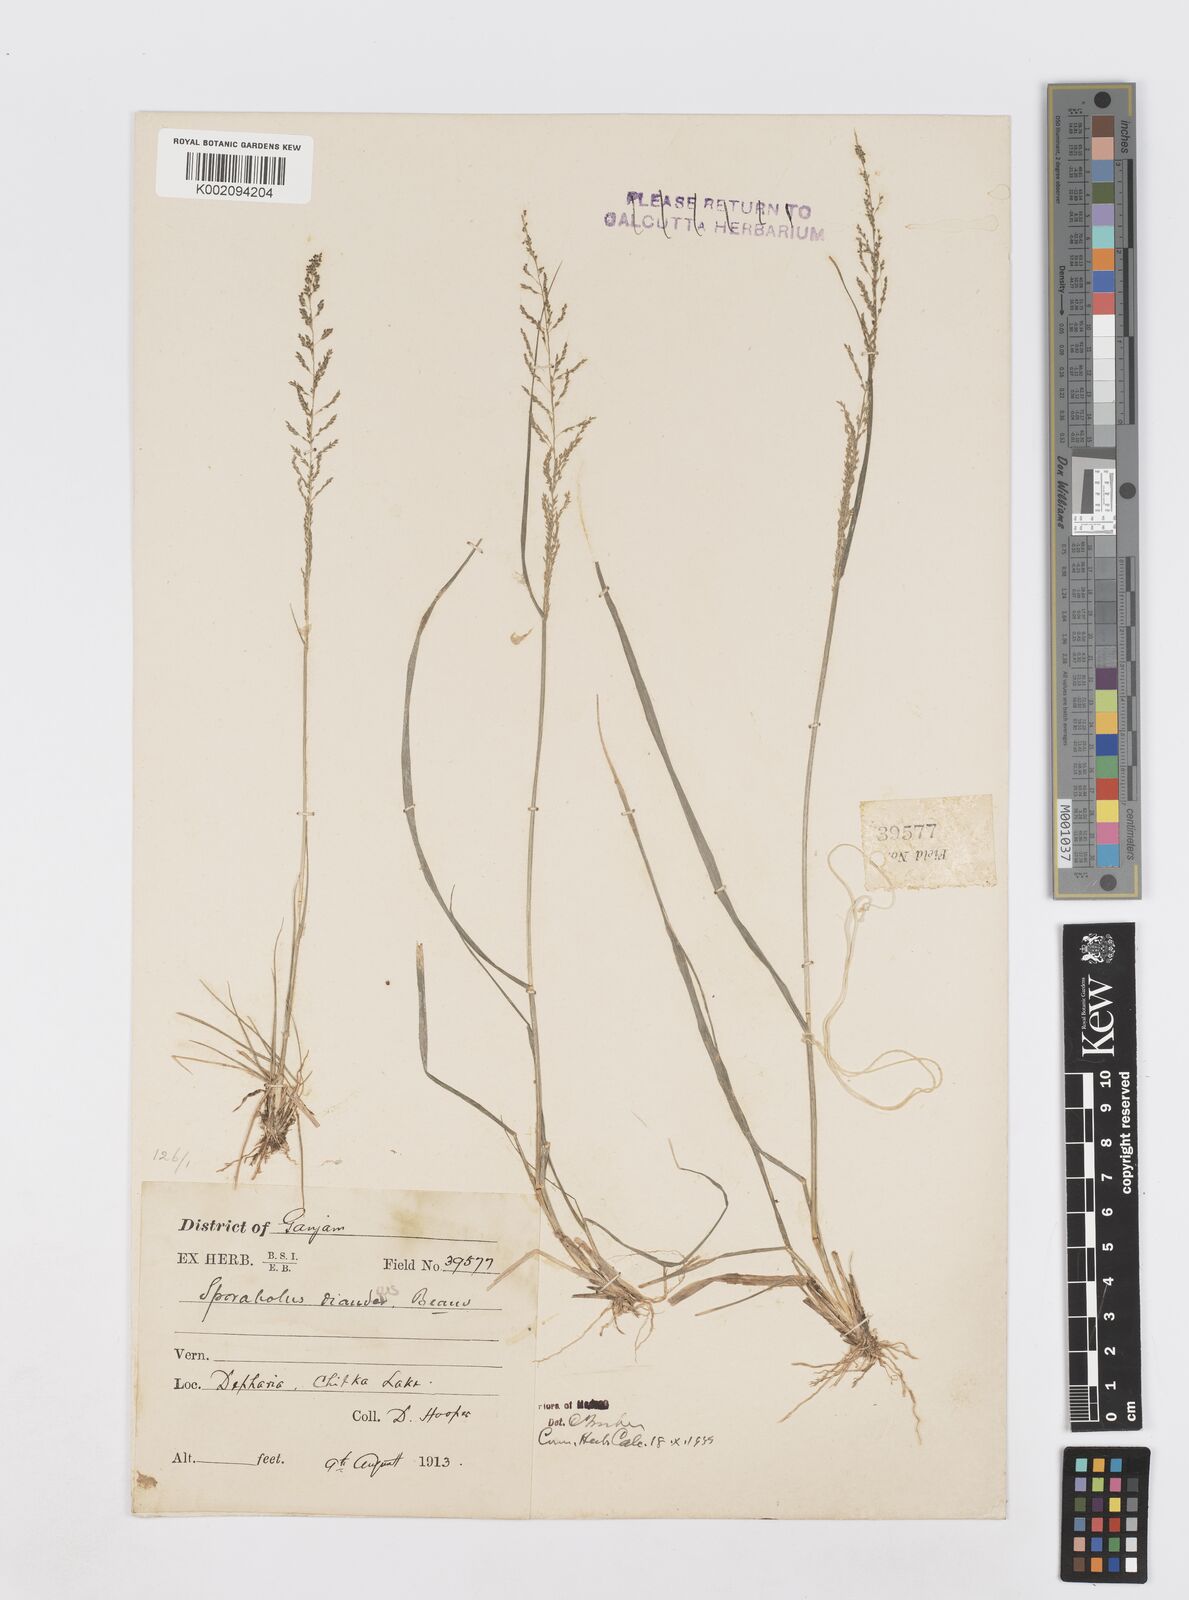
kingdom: Plantae
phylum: Tracheophyta
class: Liliopsida
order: Poales
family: Poaceae
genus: Sporobolus
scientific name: Sporobolus diandrus
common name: Tussock dropseed
